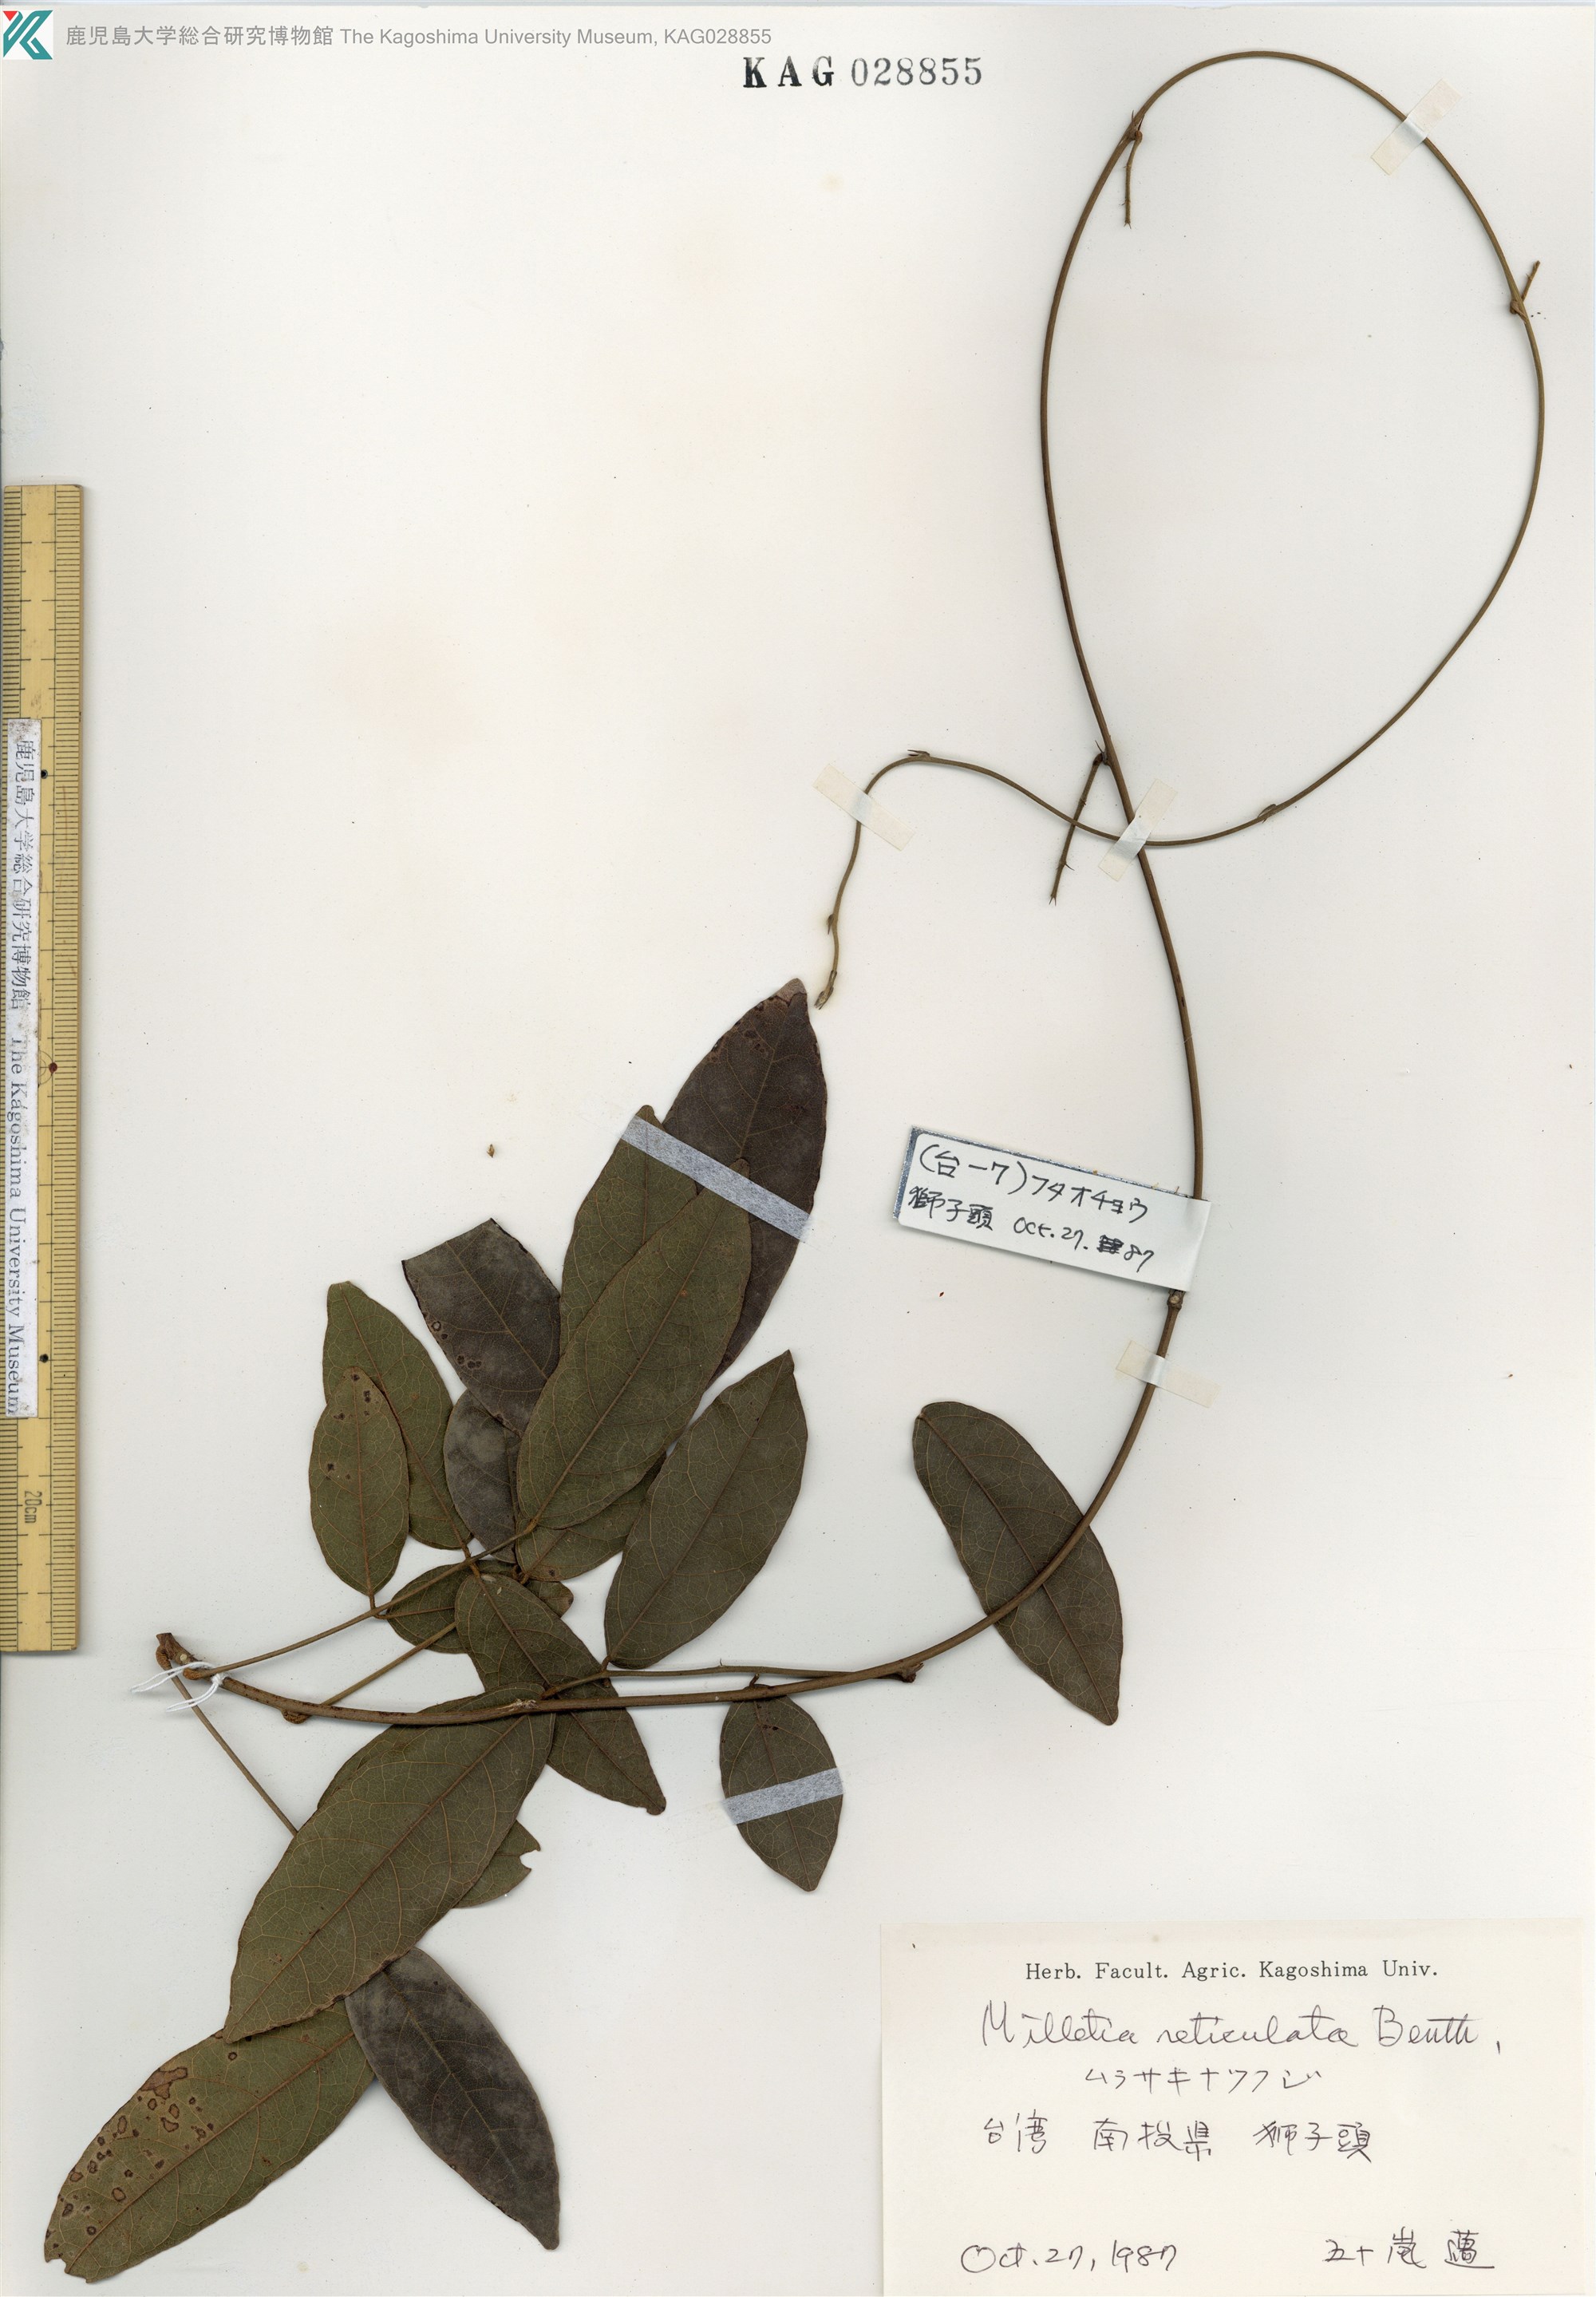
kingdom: Plantae
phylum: Tracheophyta
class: Magnoliopsida
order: Fabales
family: Fabaceae
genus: Wisteriopsis
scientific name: Wisteriopsis reticulata
